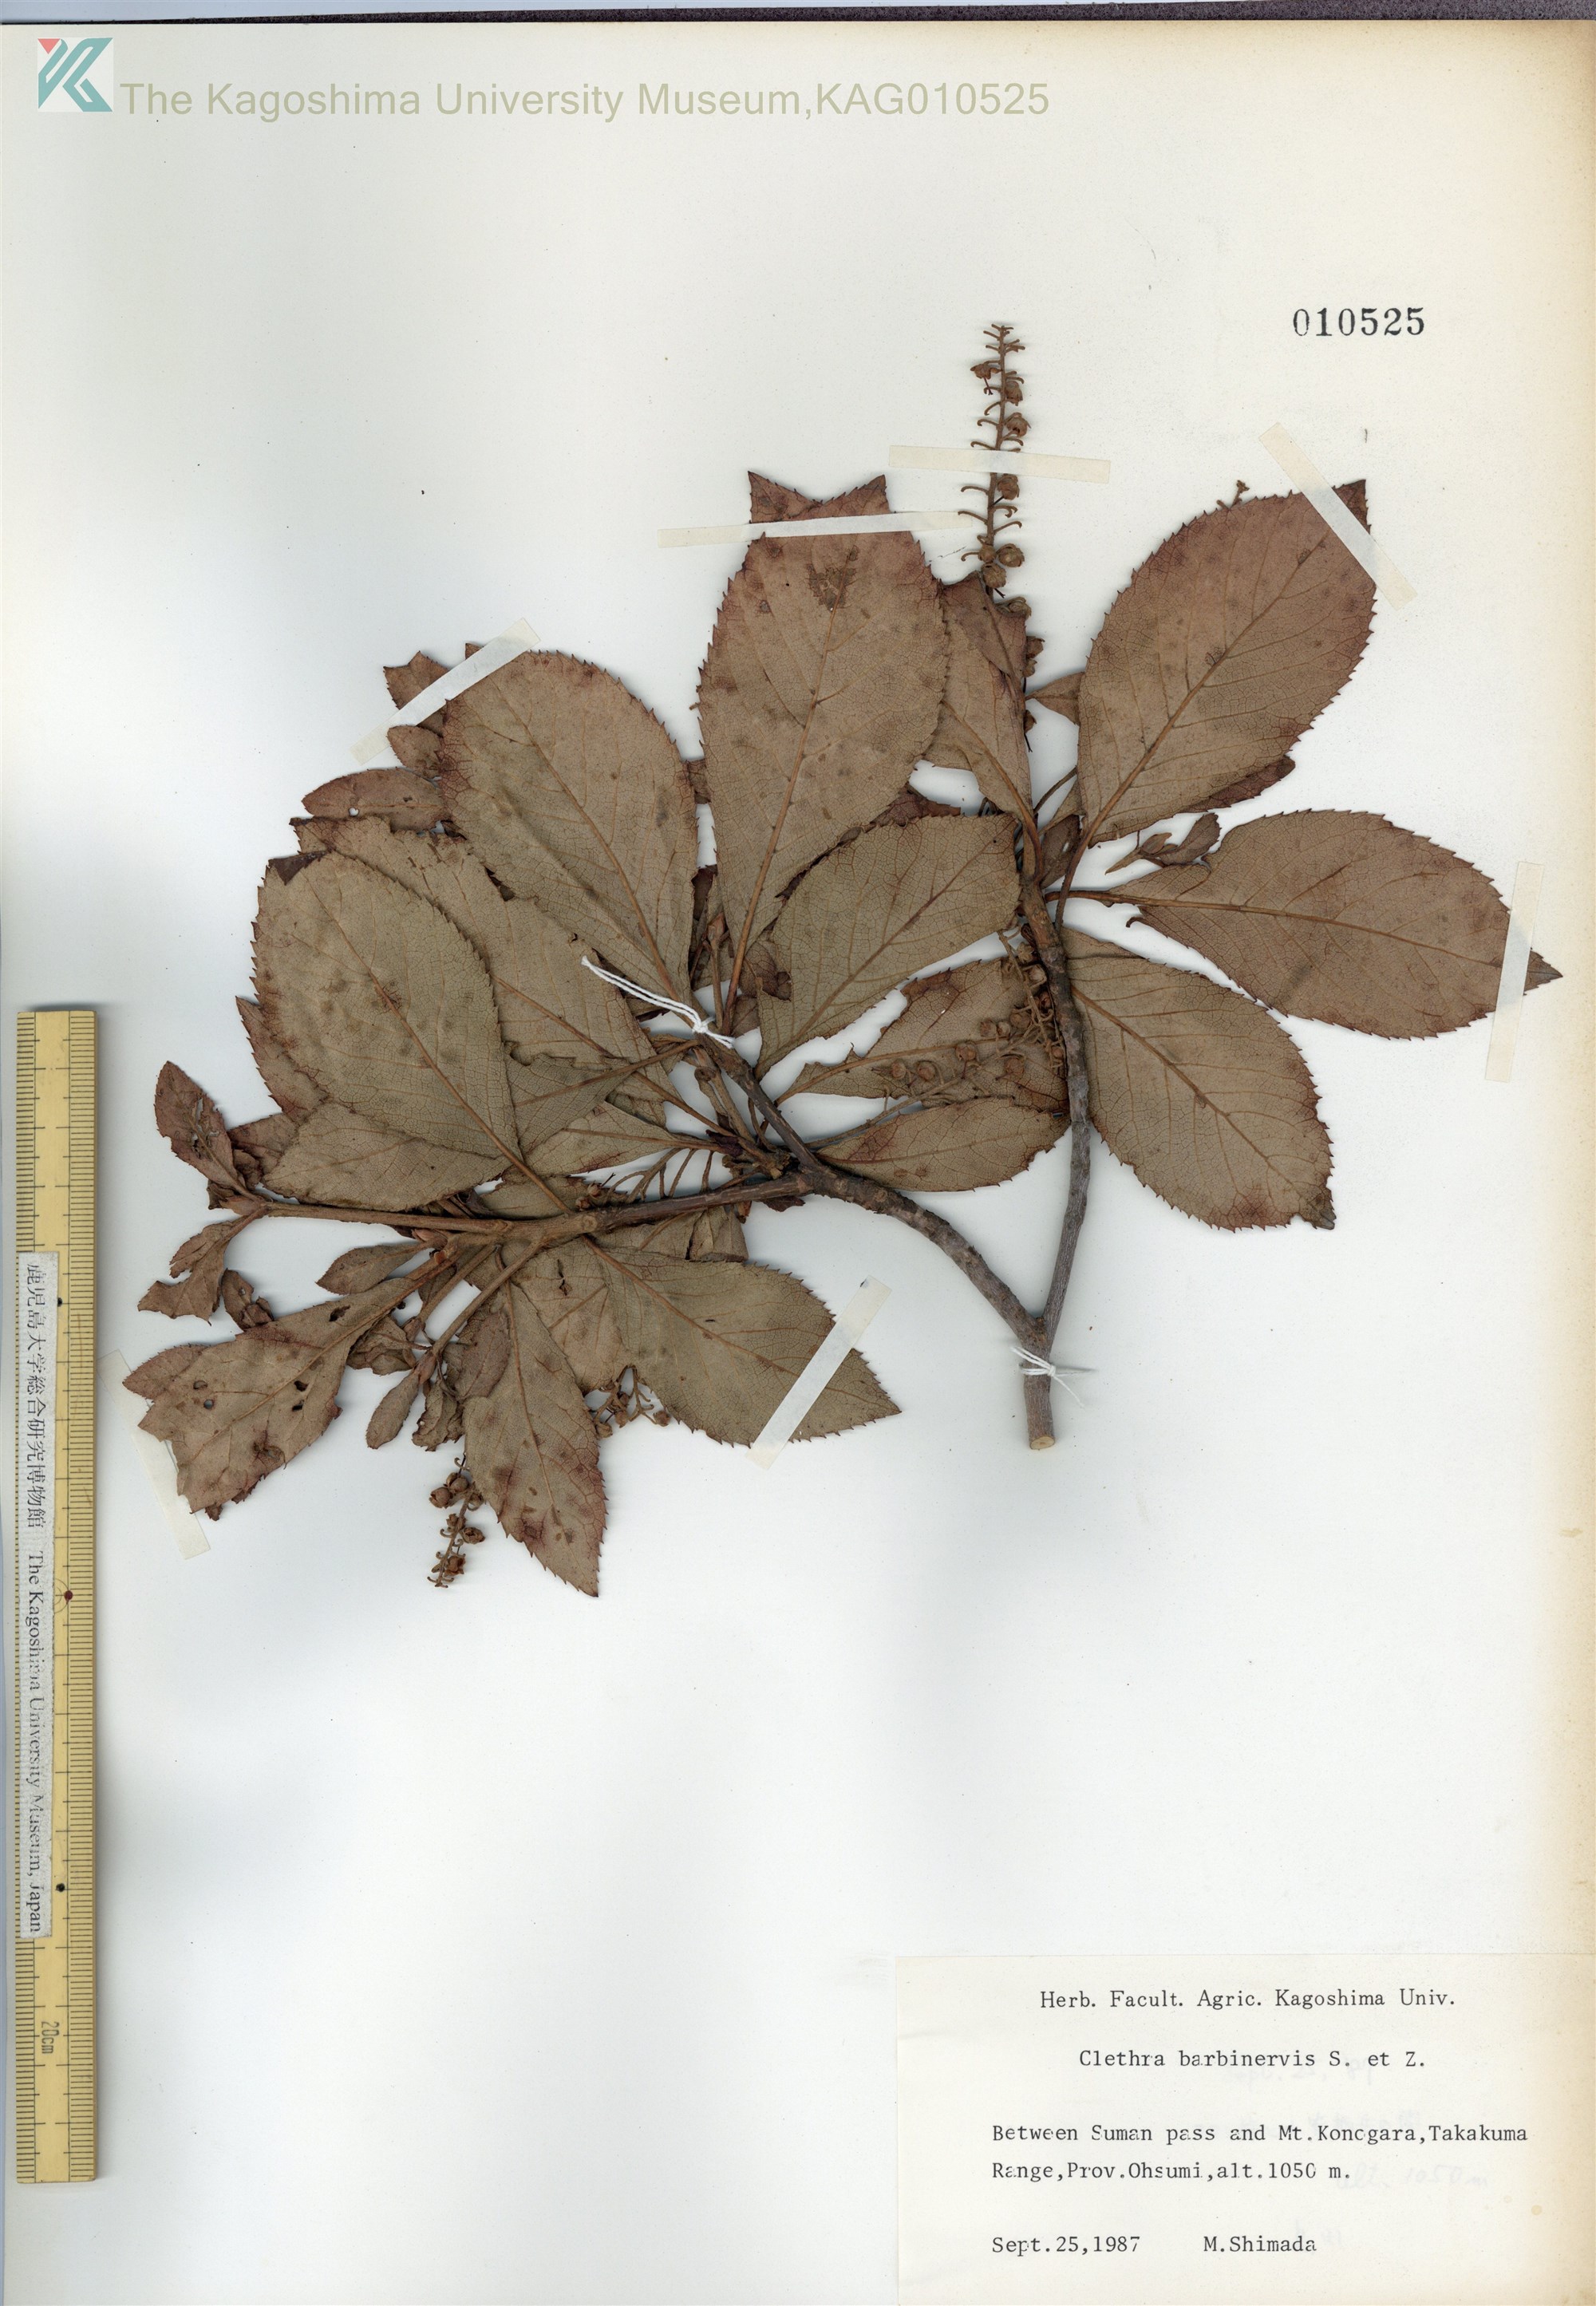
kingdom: Plantae
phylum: Tracheophyta
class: Magnoliopsida
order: Ericales
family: Clethraceae
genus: Clethra
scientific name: Clethra barbinervis
